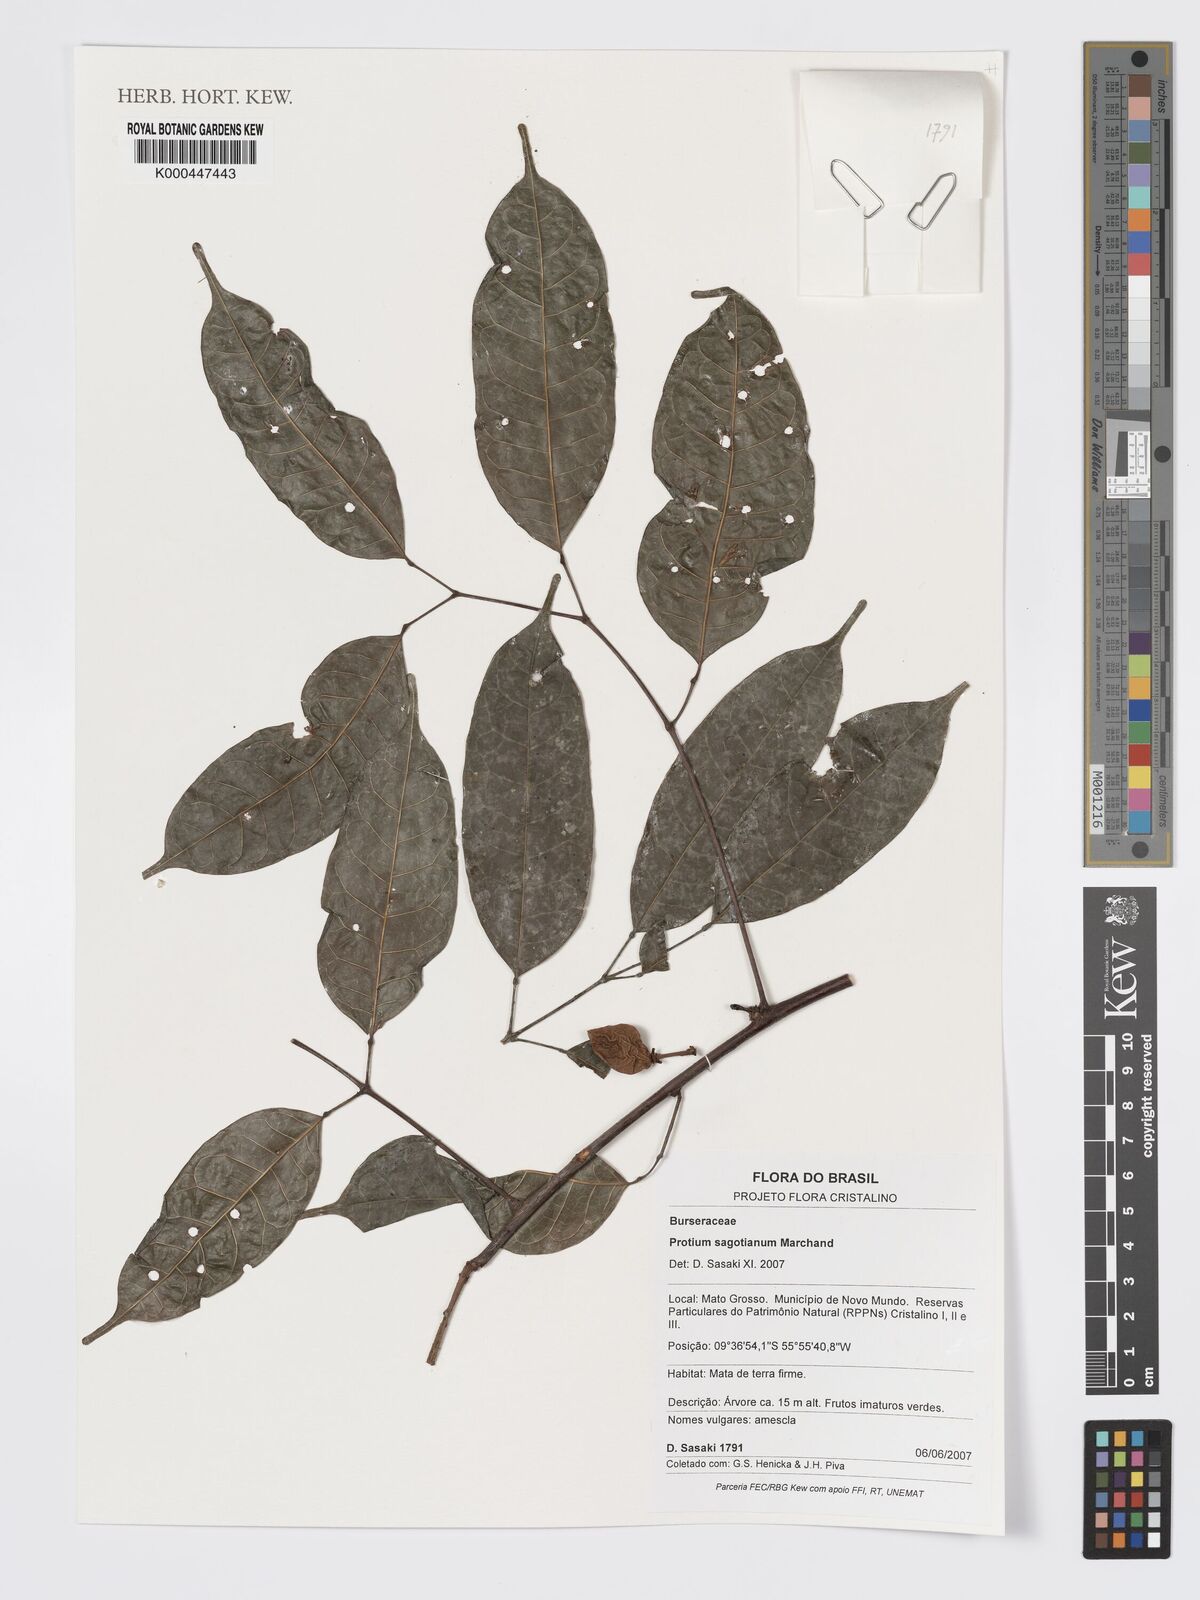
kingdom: Plantae
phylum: Tracheophyta
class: Magnoliopsida
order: Sapindales
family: Burseraceae
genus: Protium
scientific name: Protium sagotianum
